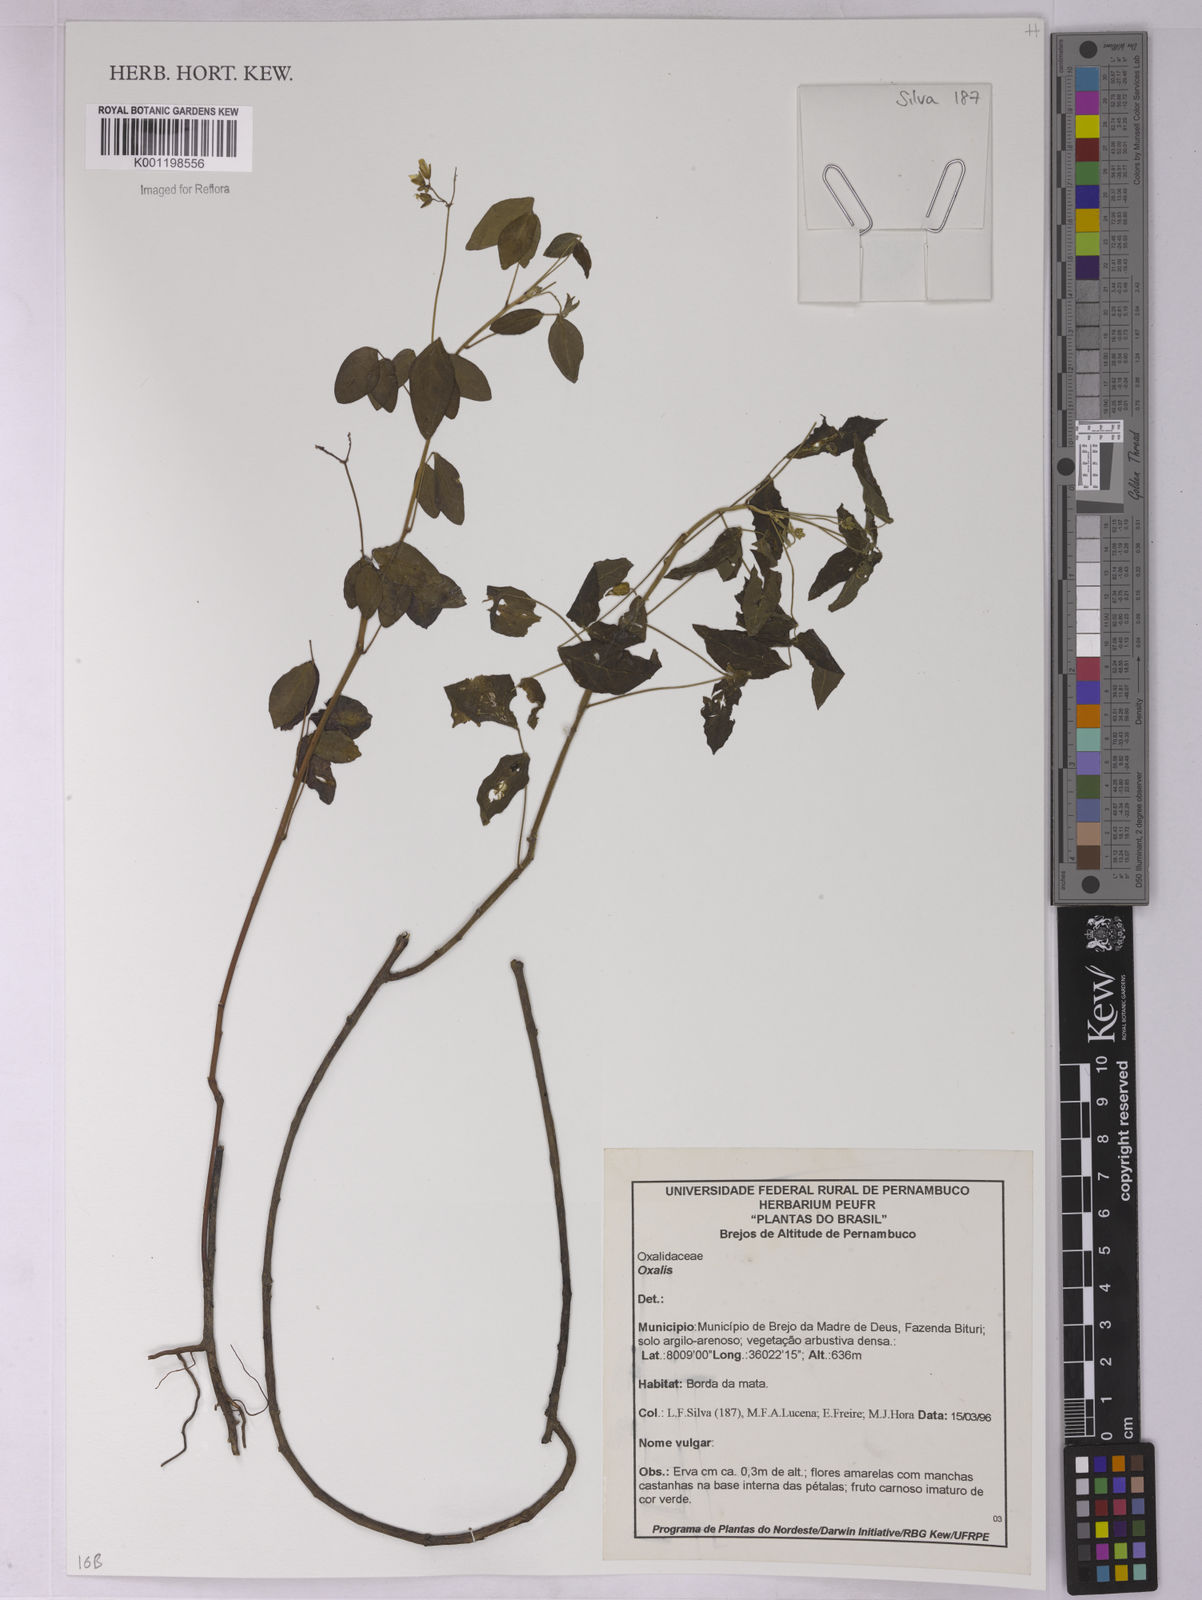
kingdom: Plantae
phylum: Tracheophyta
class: Magnoliopsida
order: Oxalidales
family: Oxalidaceae
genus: Oxalis
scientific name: Oxalis
